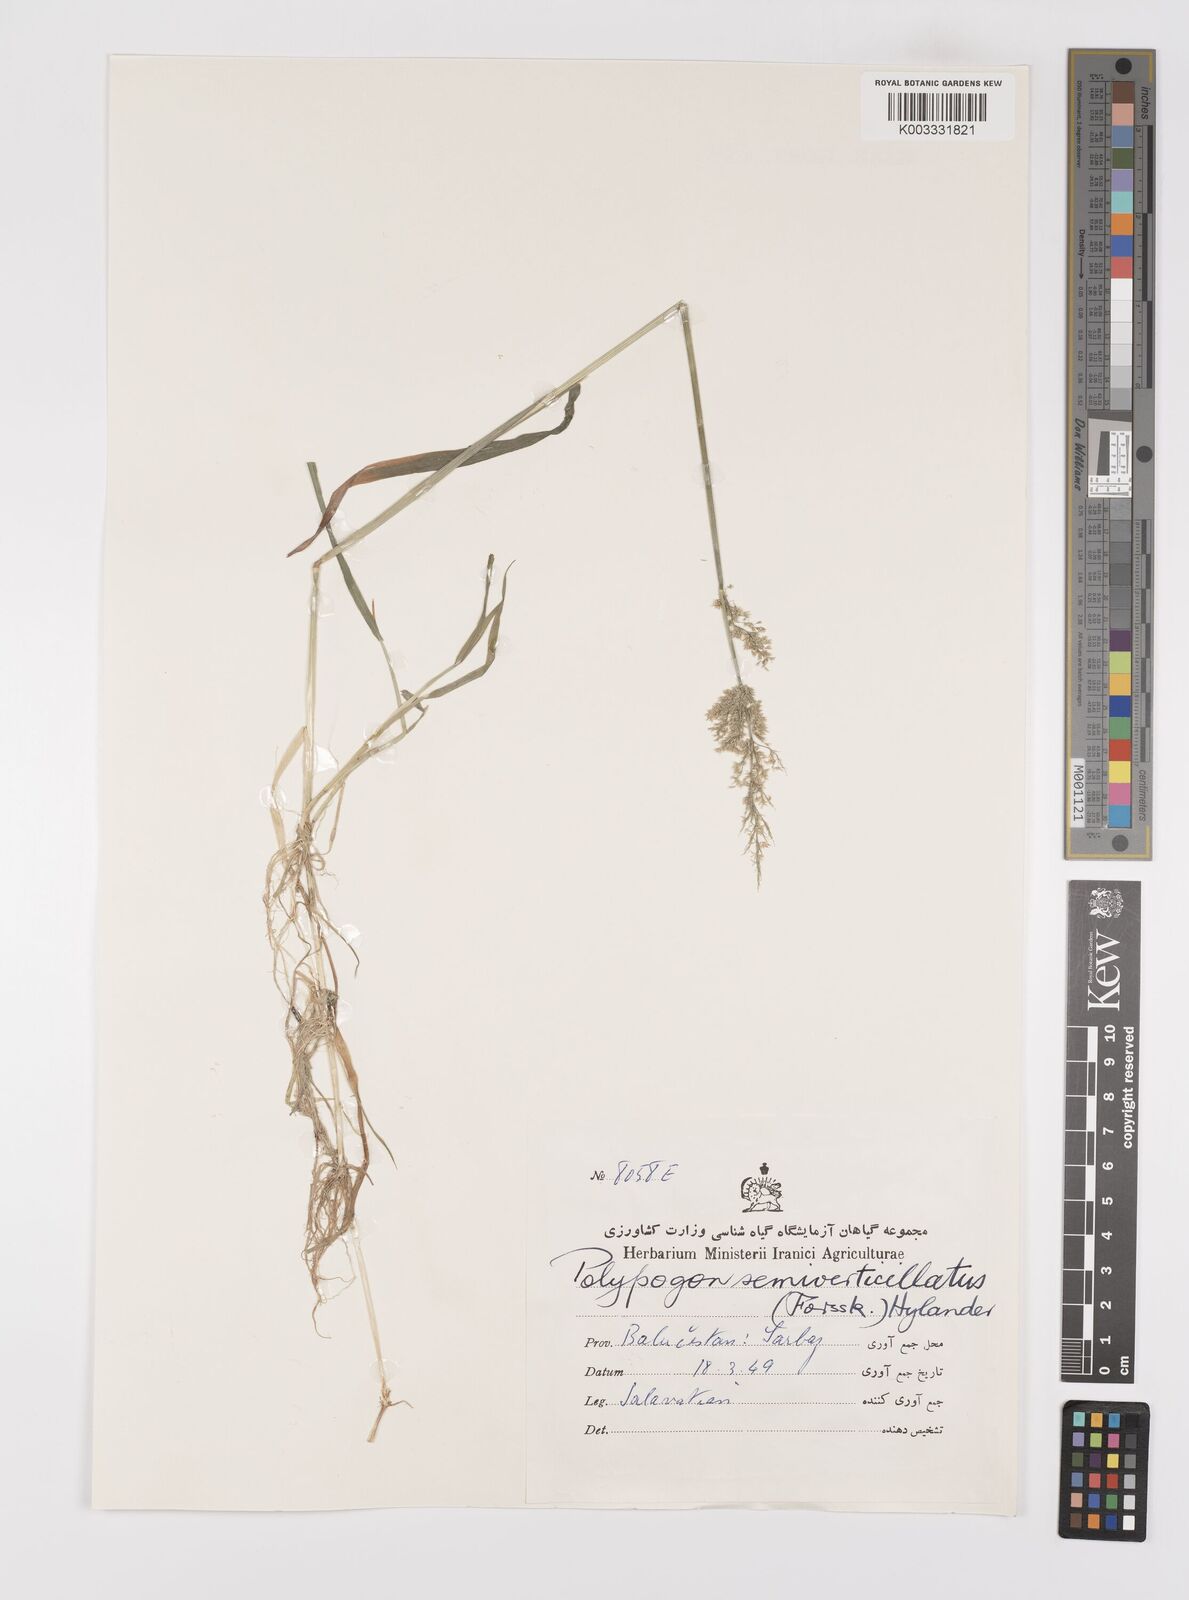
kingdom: Plantae
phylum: Tracheophyta
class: Liliopsida
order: Poales
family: Poaceae
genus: Polypogon
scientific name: Polypogon viridis
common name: Water bent
